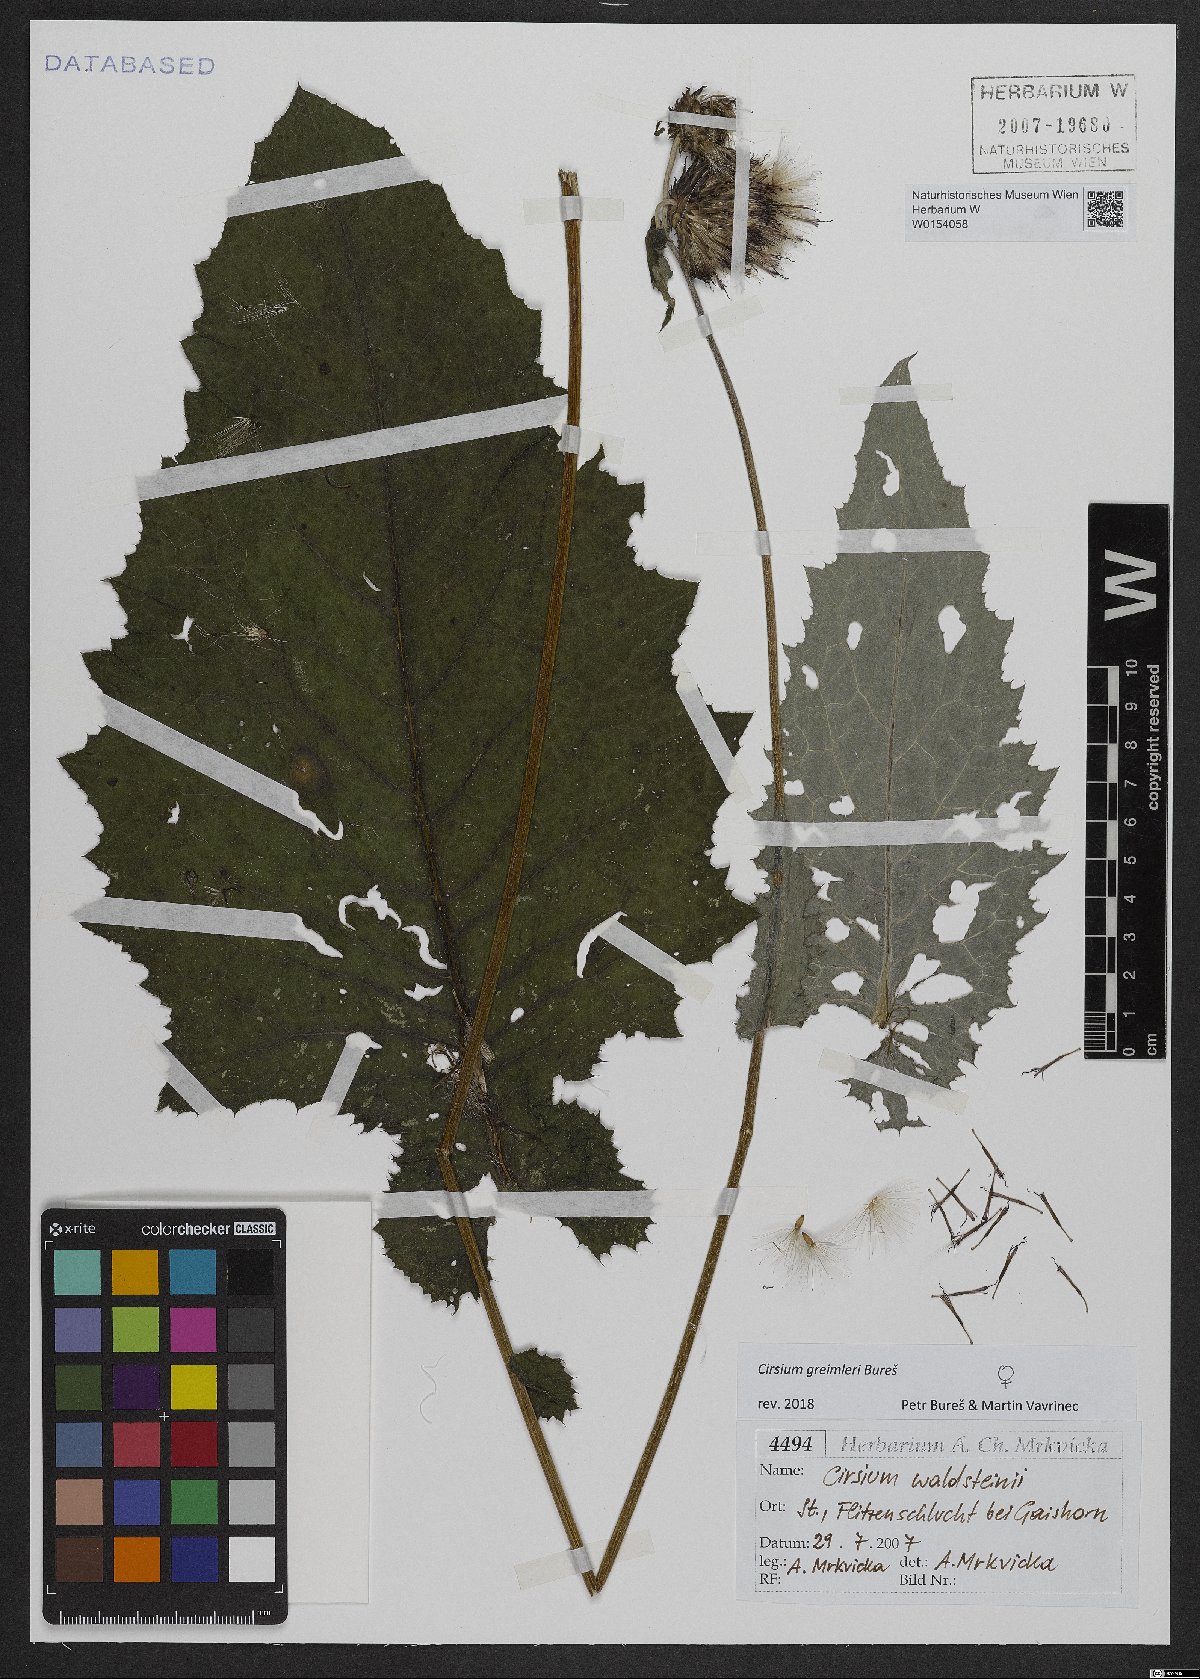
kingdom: Plantae
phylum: Tracheophyta
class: Magnoliopsida
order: Asterales
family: Asteraceae
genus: Cirsium
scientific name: Cirsium greimleri
